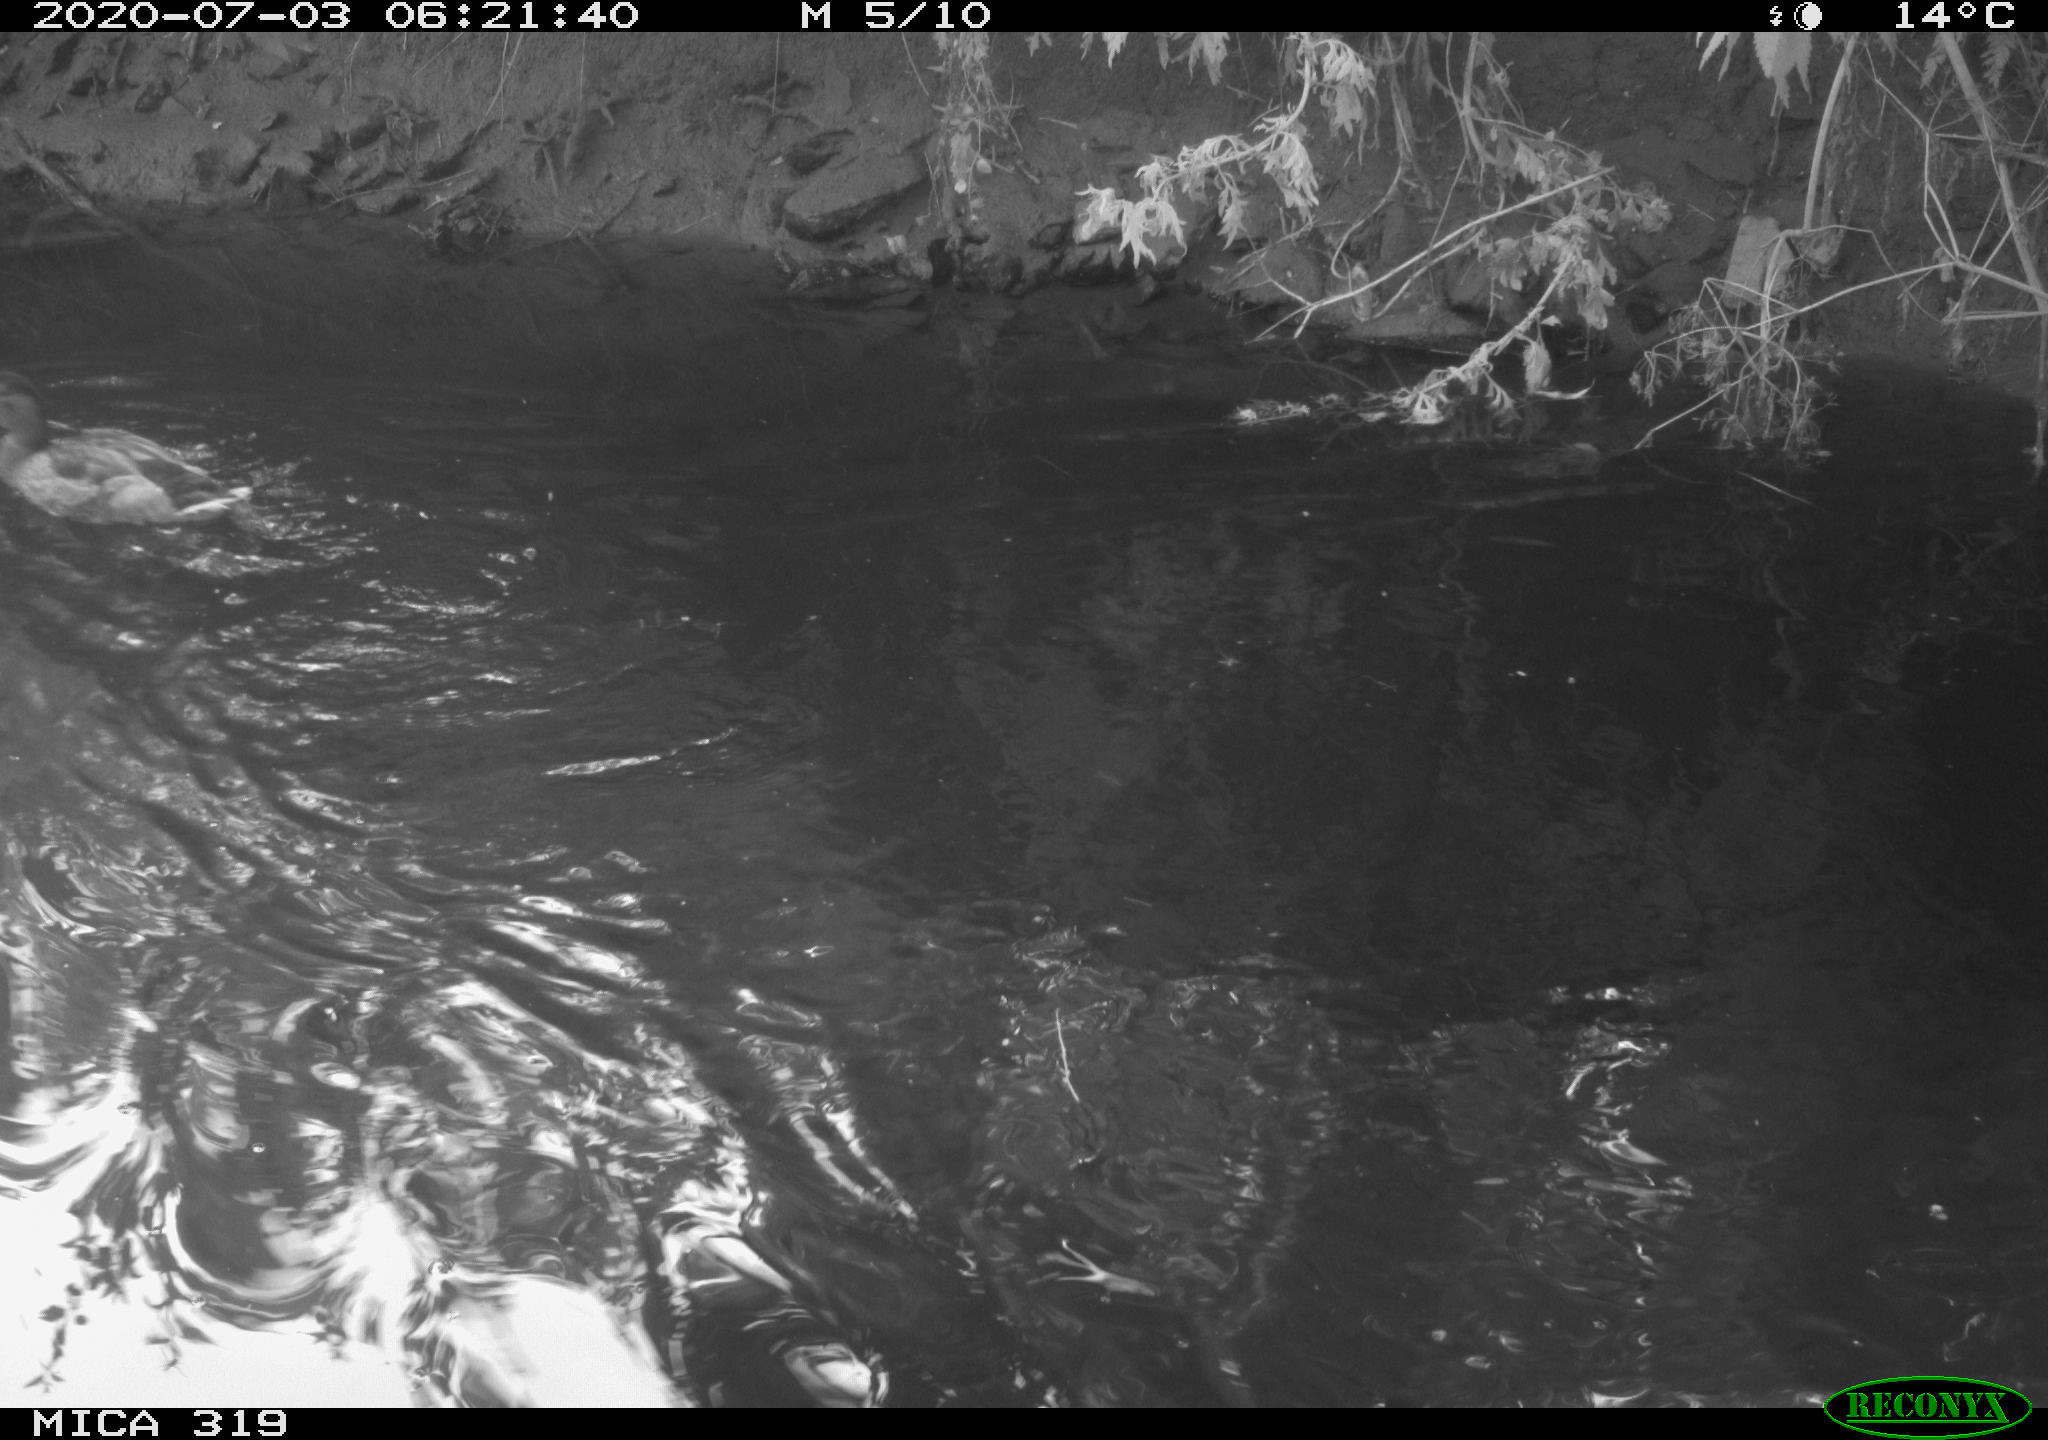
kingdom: Animalia
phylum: Chordata
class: Aves
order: Anseriformes
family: Anatidae
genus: Anas
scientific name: Anas platyrhynchos
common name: Mallard
